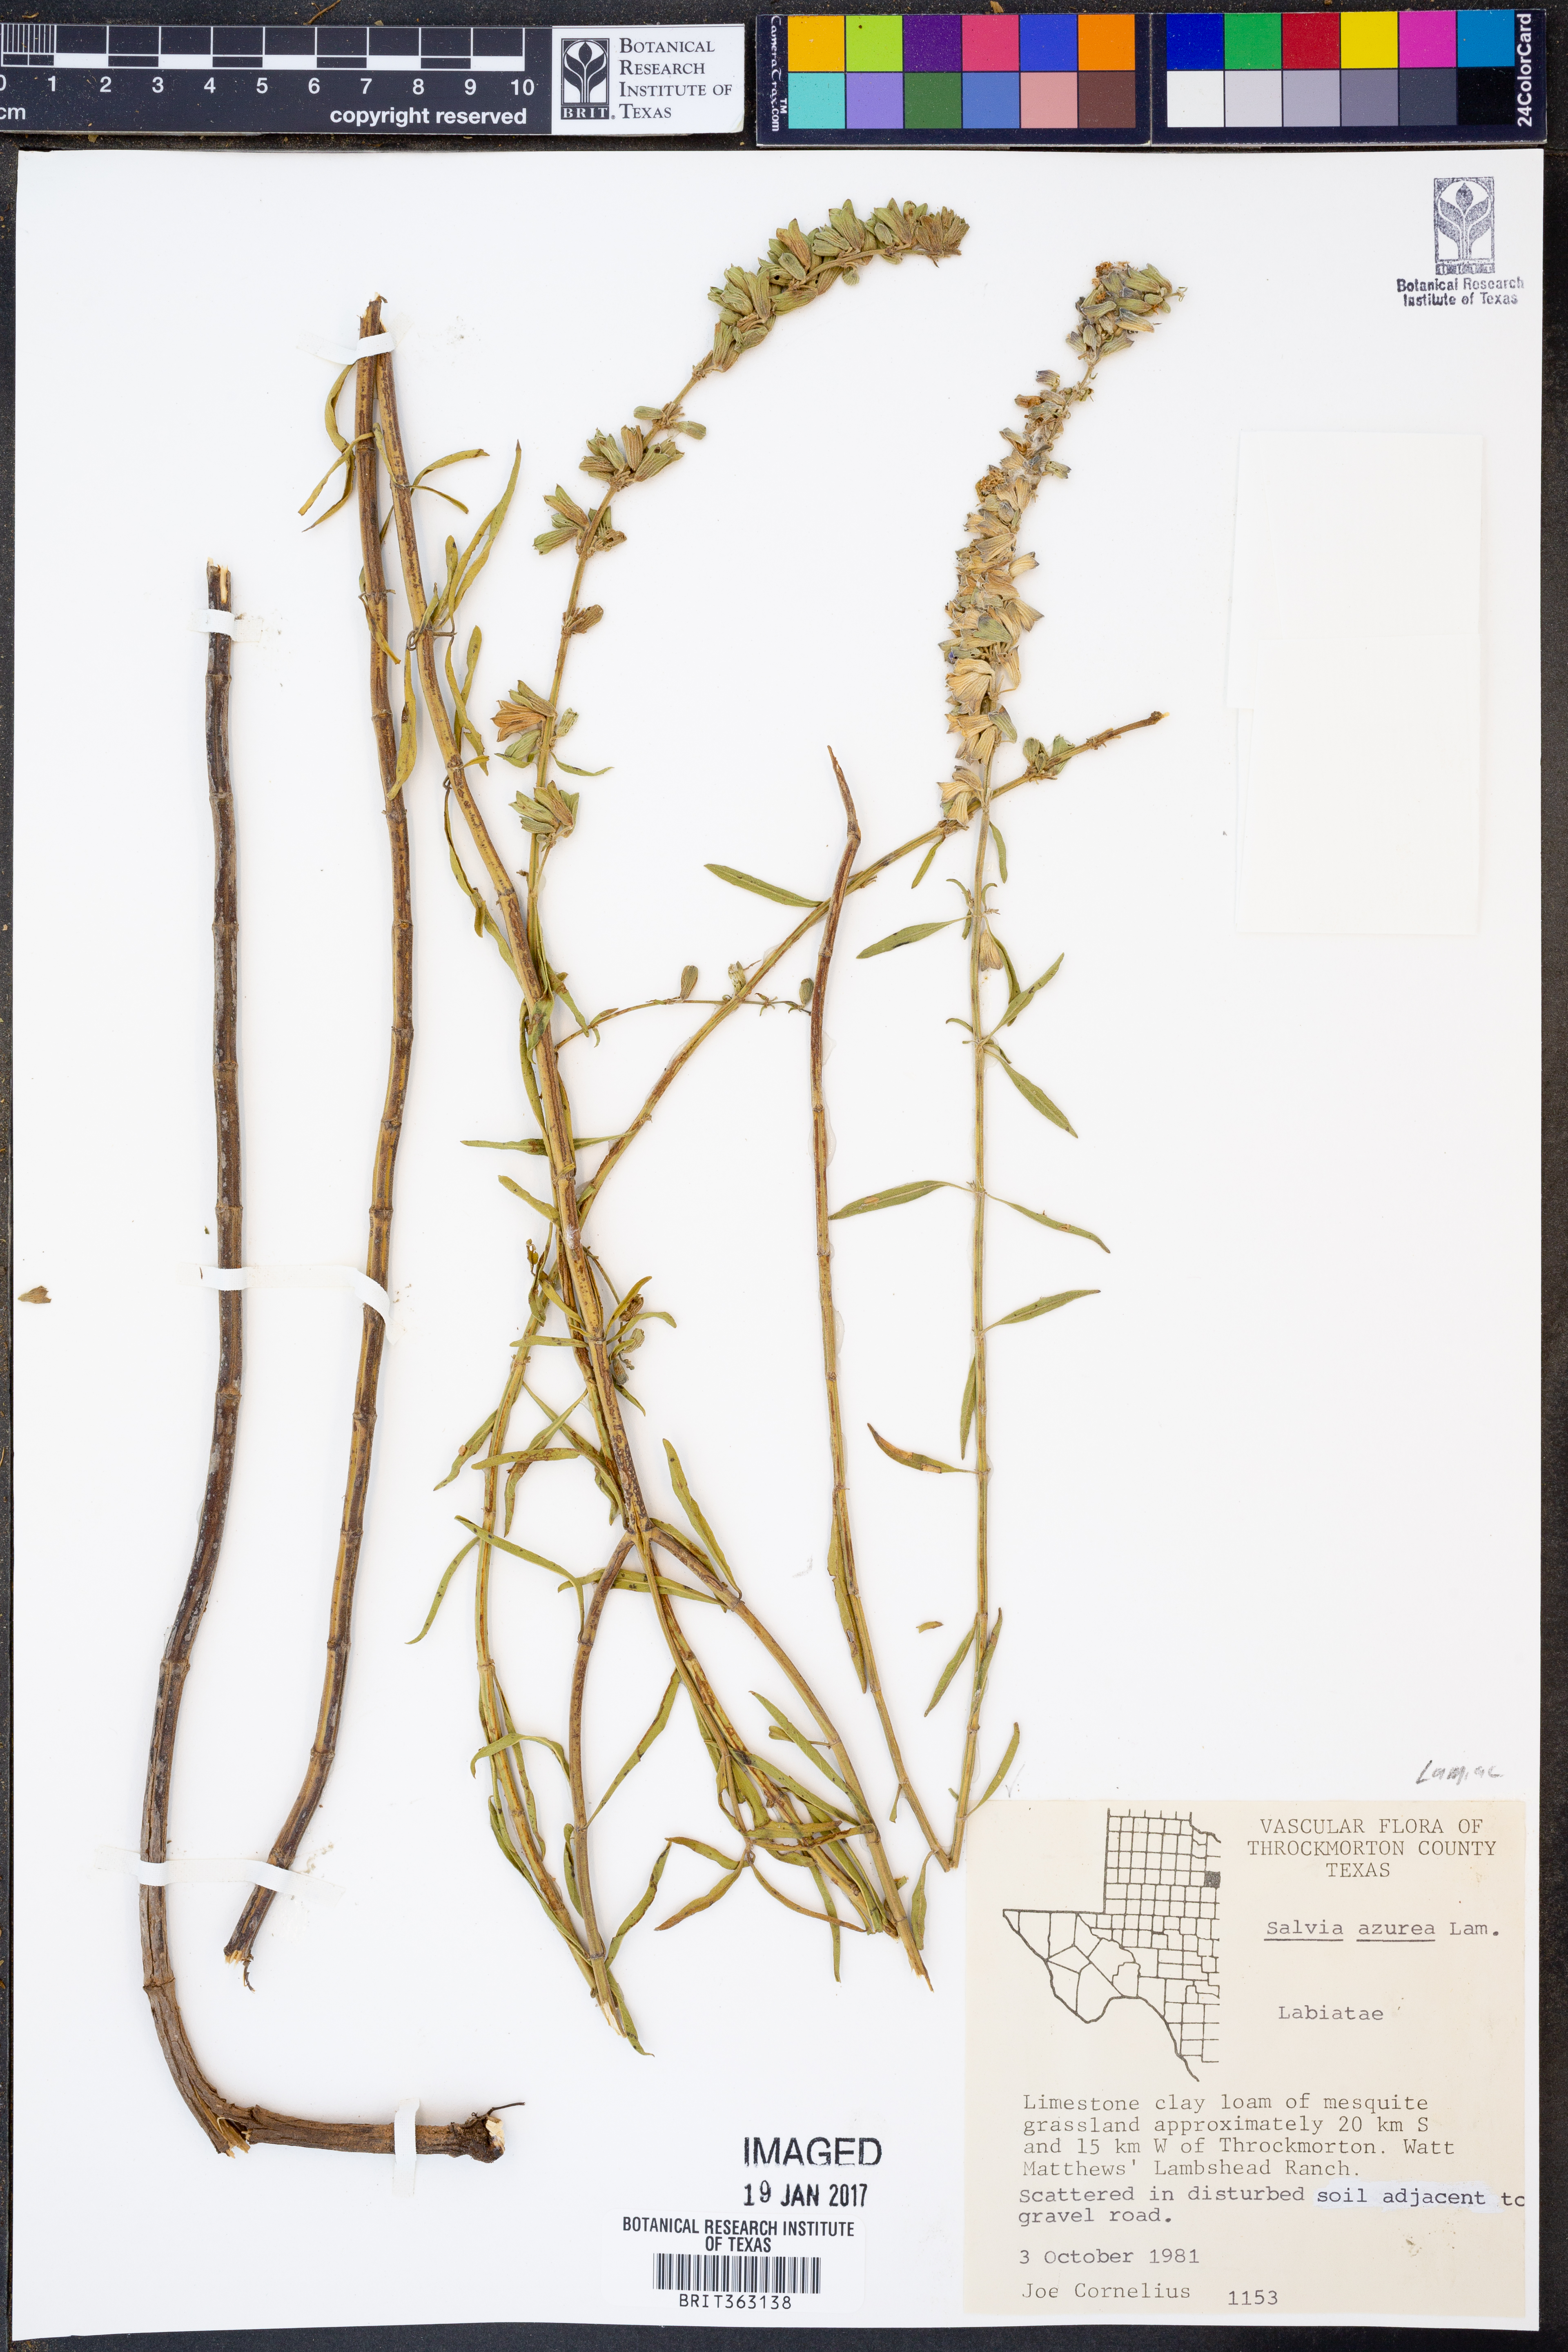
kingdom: Plantae
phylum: Tracheophyta
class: Magnoliopsida
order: Lamiales
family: Lamiaceae
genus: Salvia
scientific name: Salvia azurea
